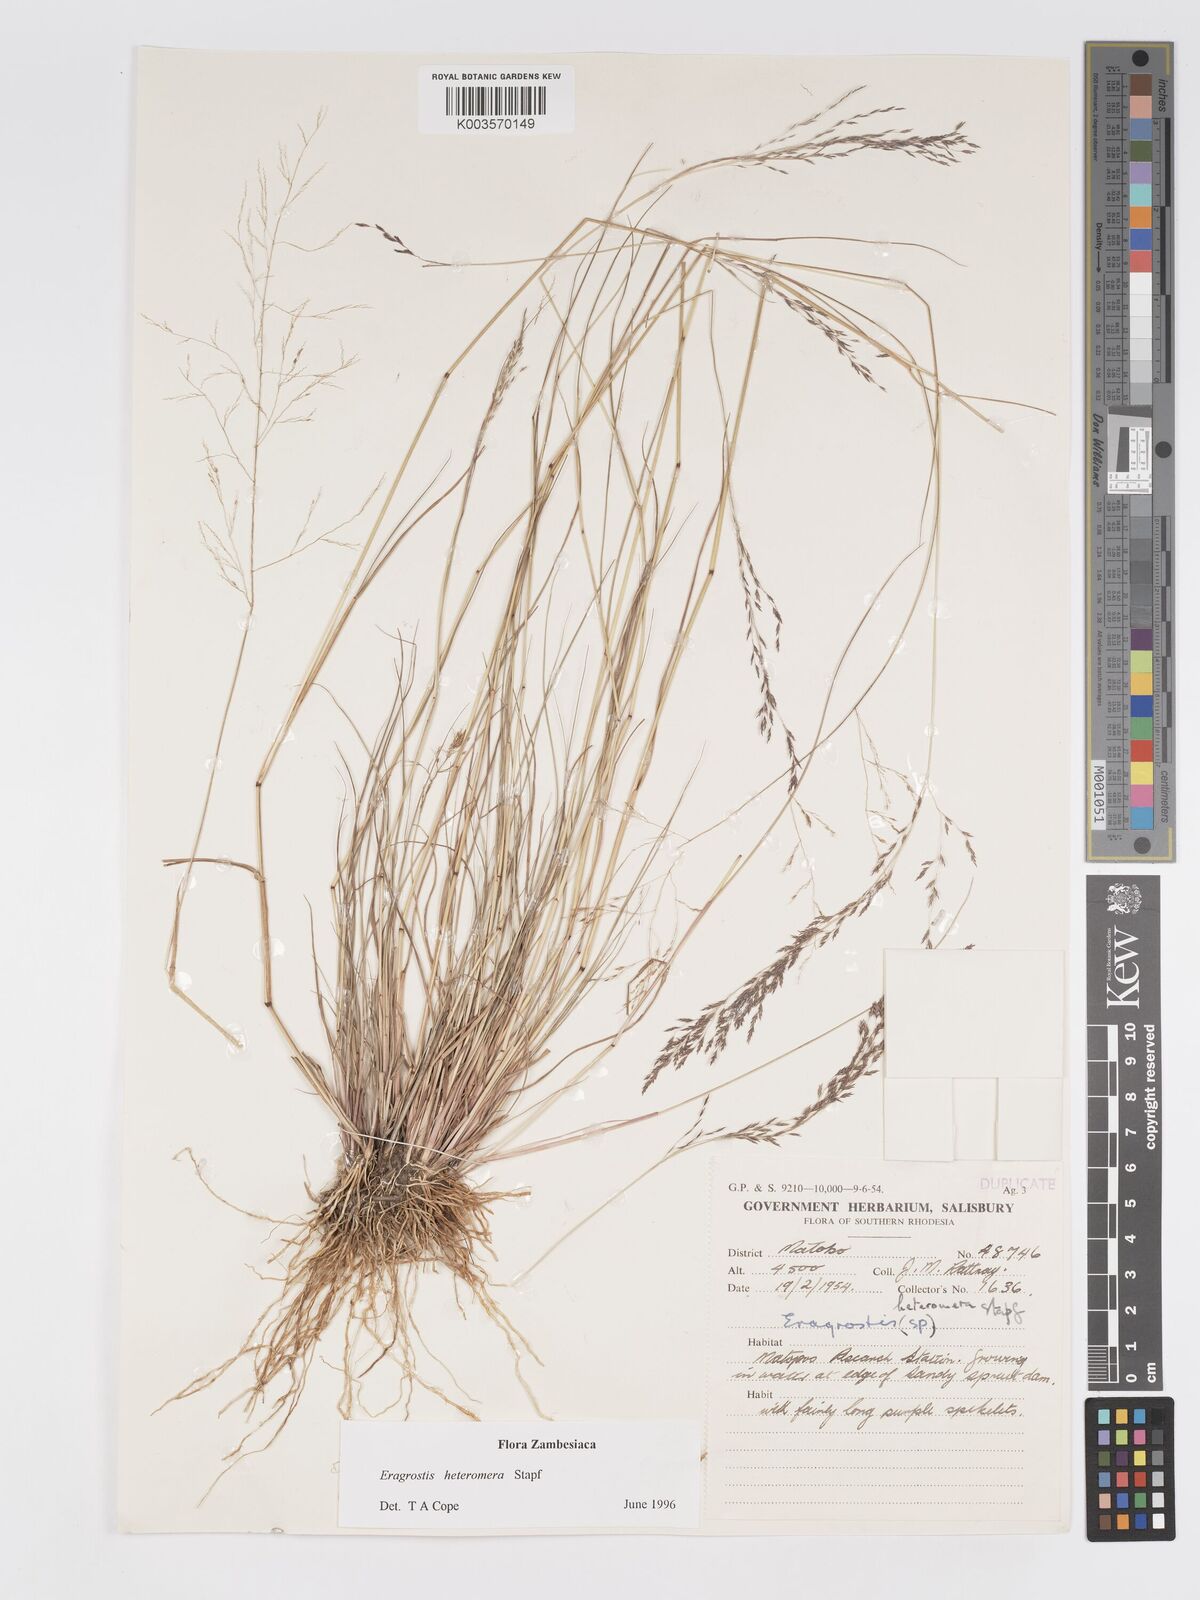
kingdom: Plantae
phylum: Tracheophyta
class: Liliopsida
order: Poales
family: Poaceae
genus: Eragrostis
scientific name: Eragrostis heteromera
